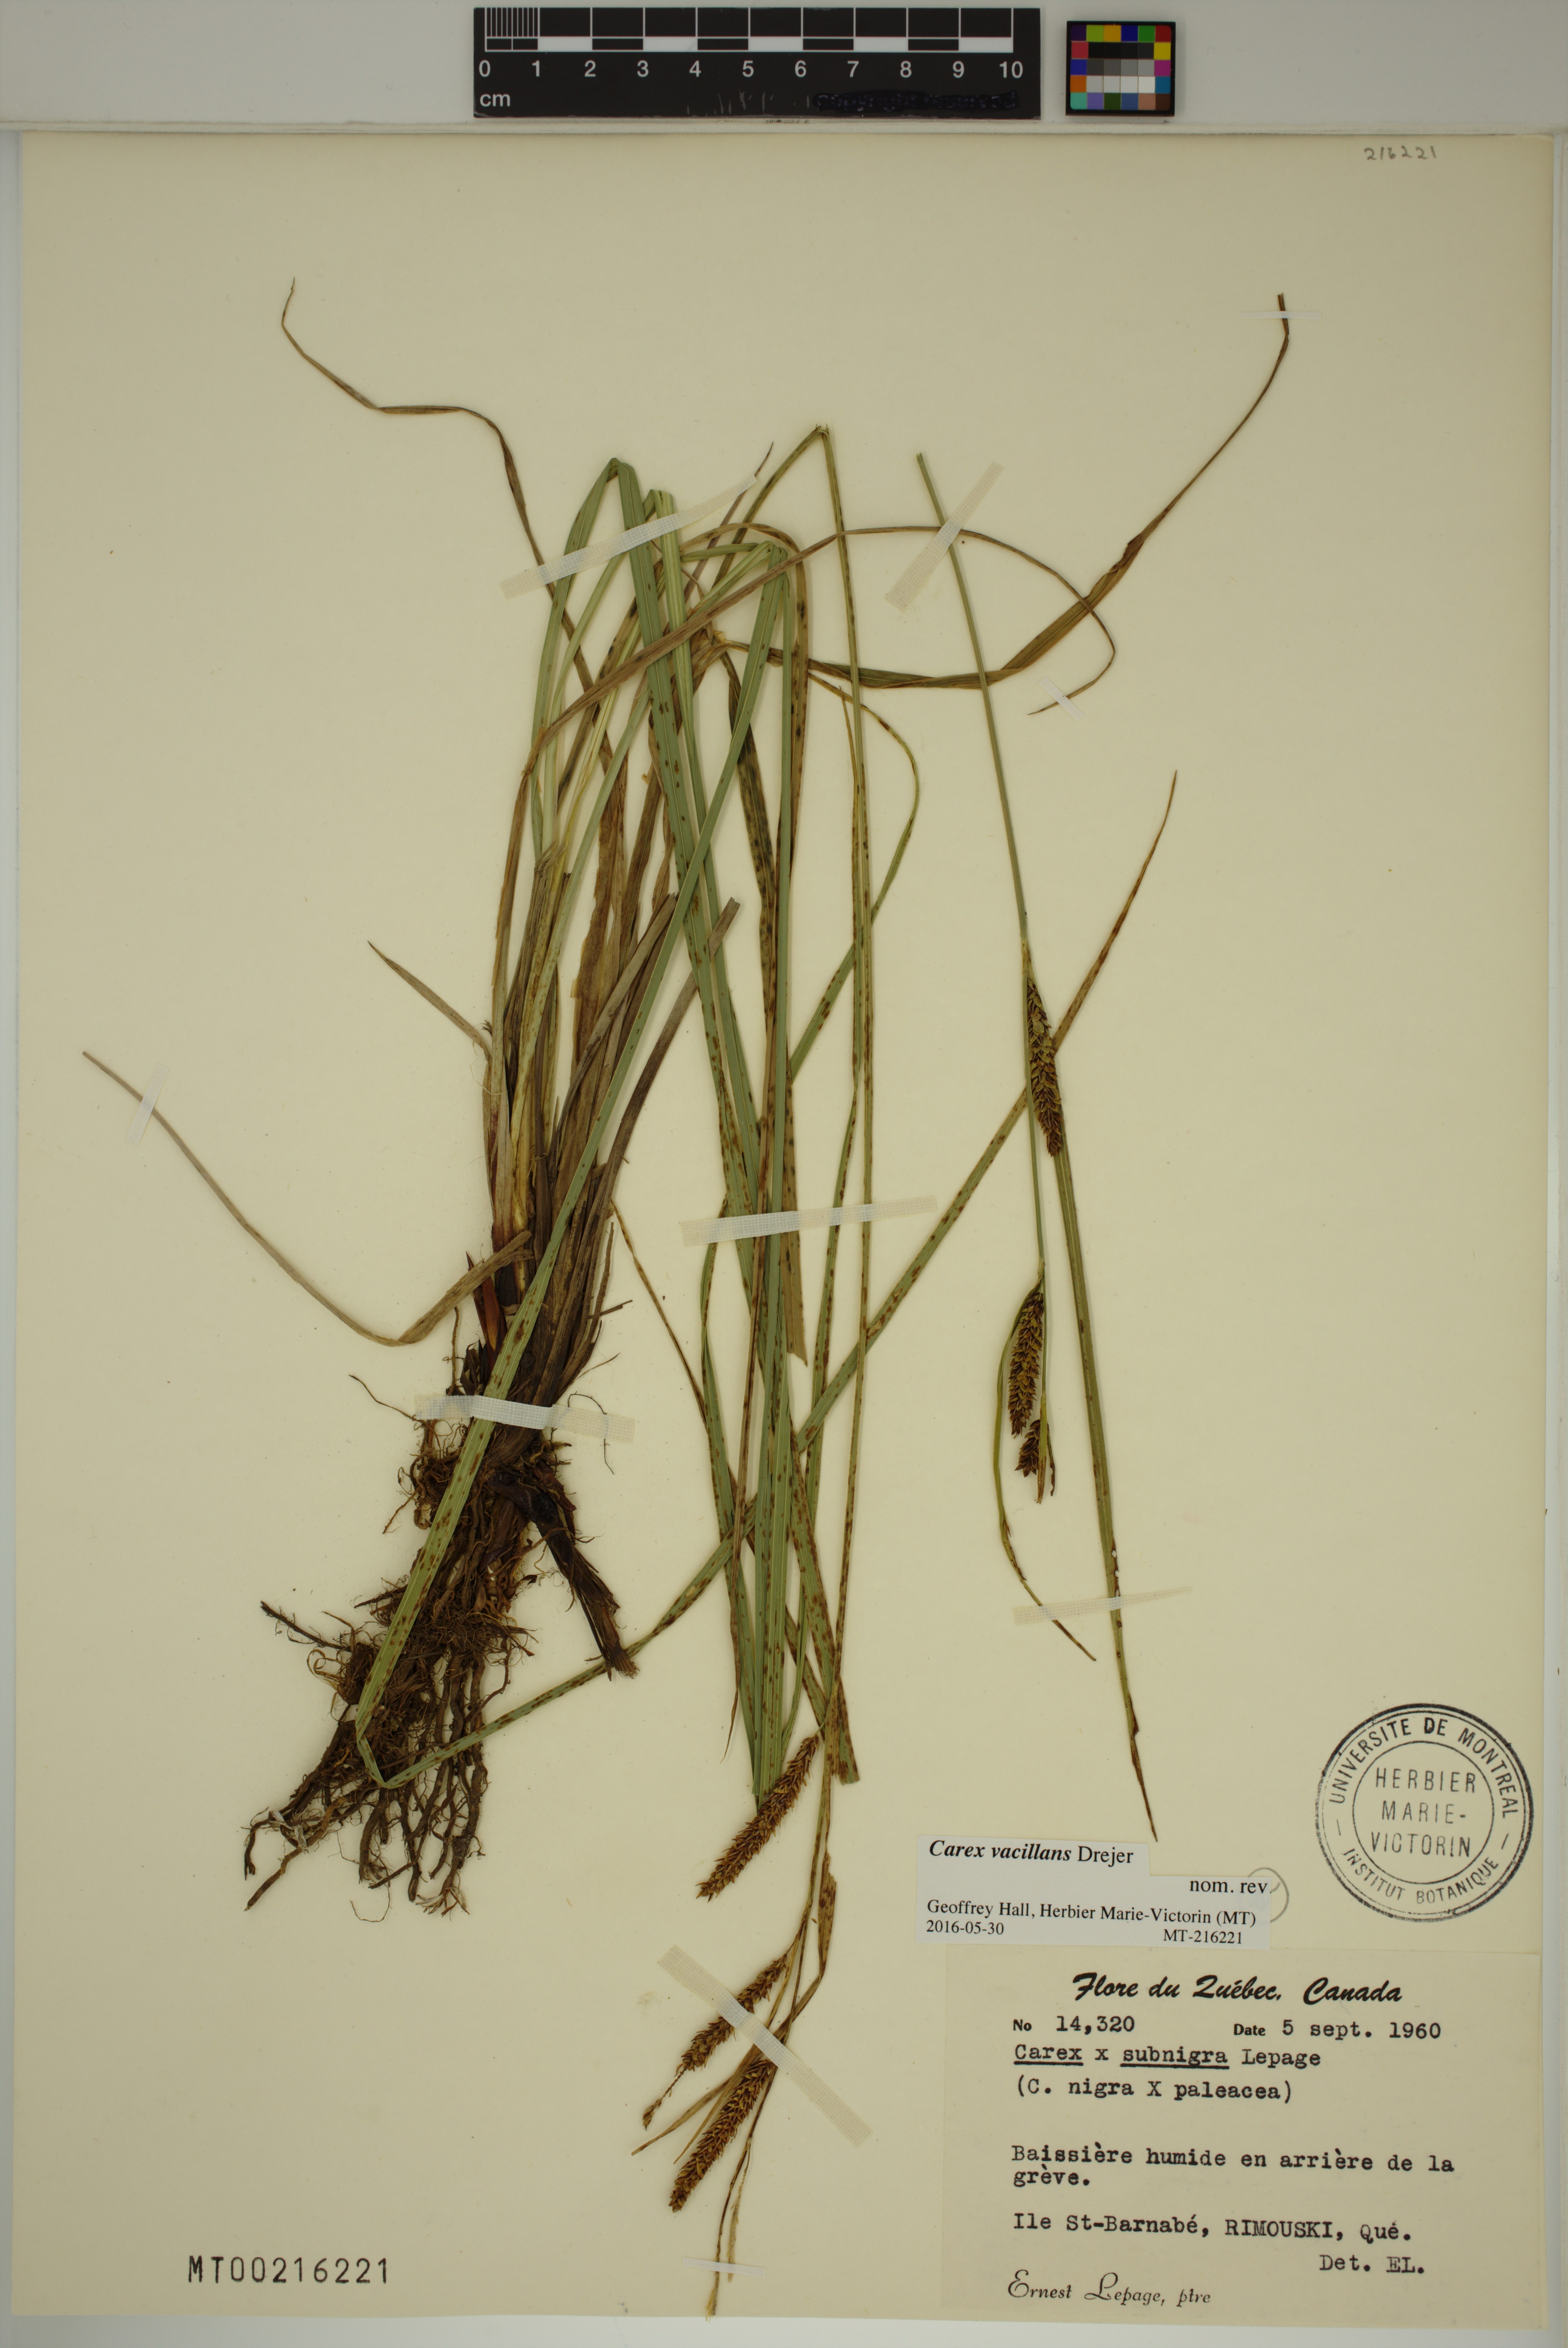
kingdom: Plantae
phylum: Tracheophyta
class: Liliopsida
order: Poales
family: Cyperaceae
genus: Carex
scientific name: Carex vacillans
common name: Sedge
